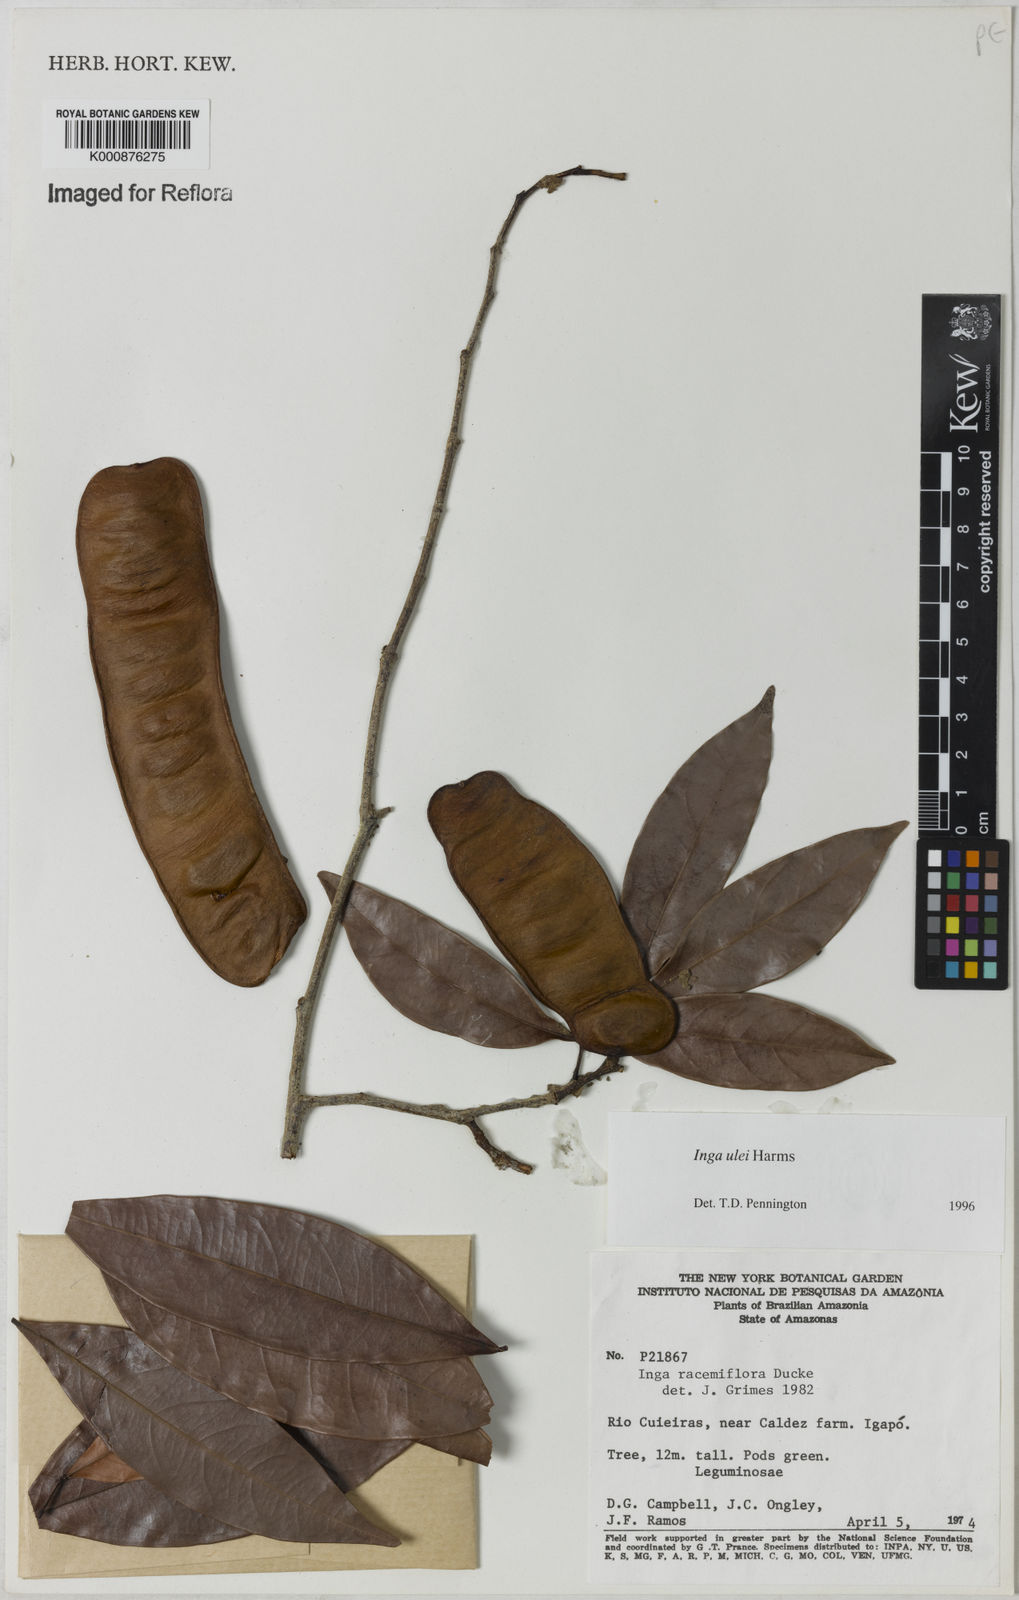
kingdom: Plantae
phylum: Tracheophyta
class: Magnoliopsida
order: Fabales
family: Fabaceae
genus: Inga
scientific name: Inga ulei
